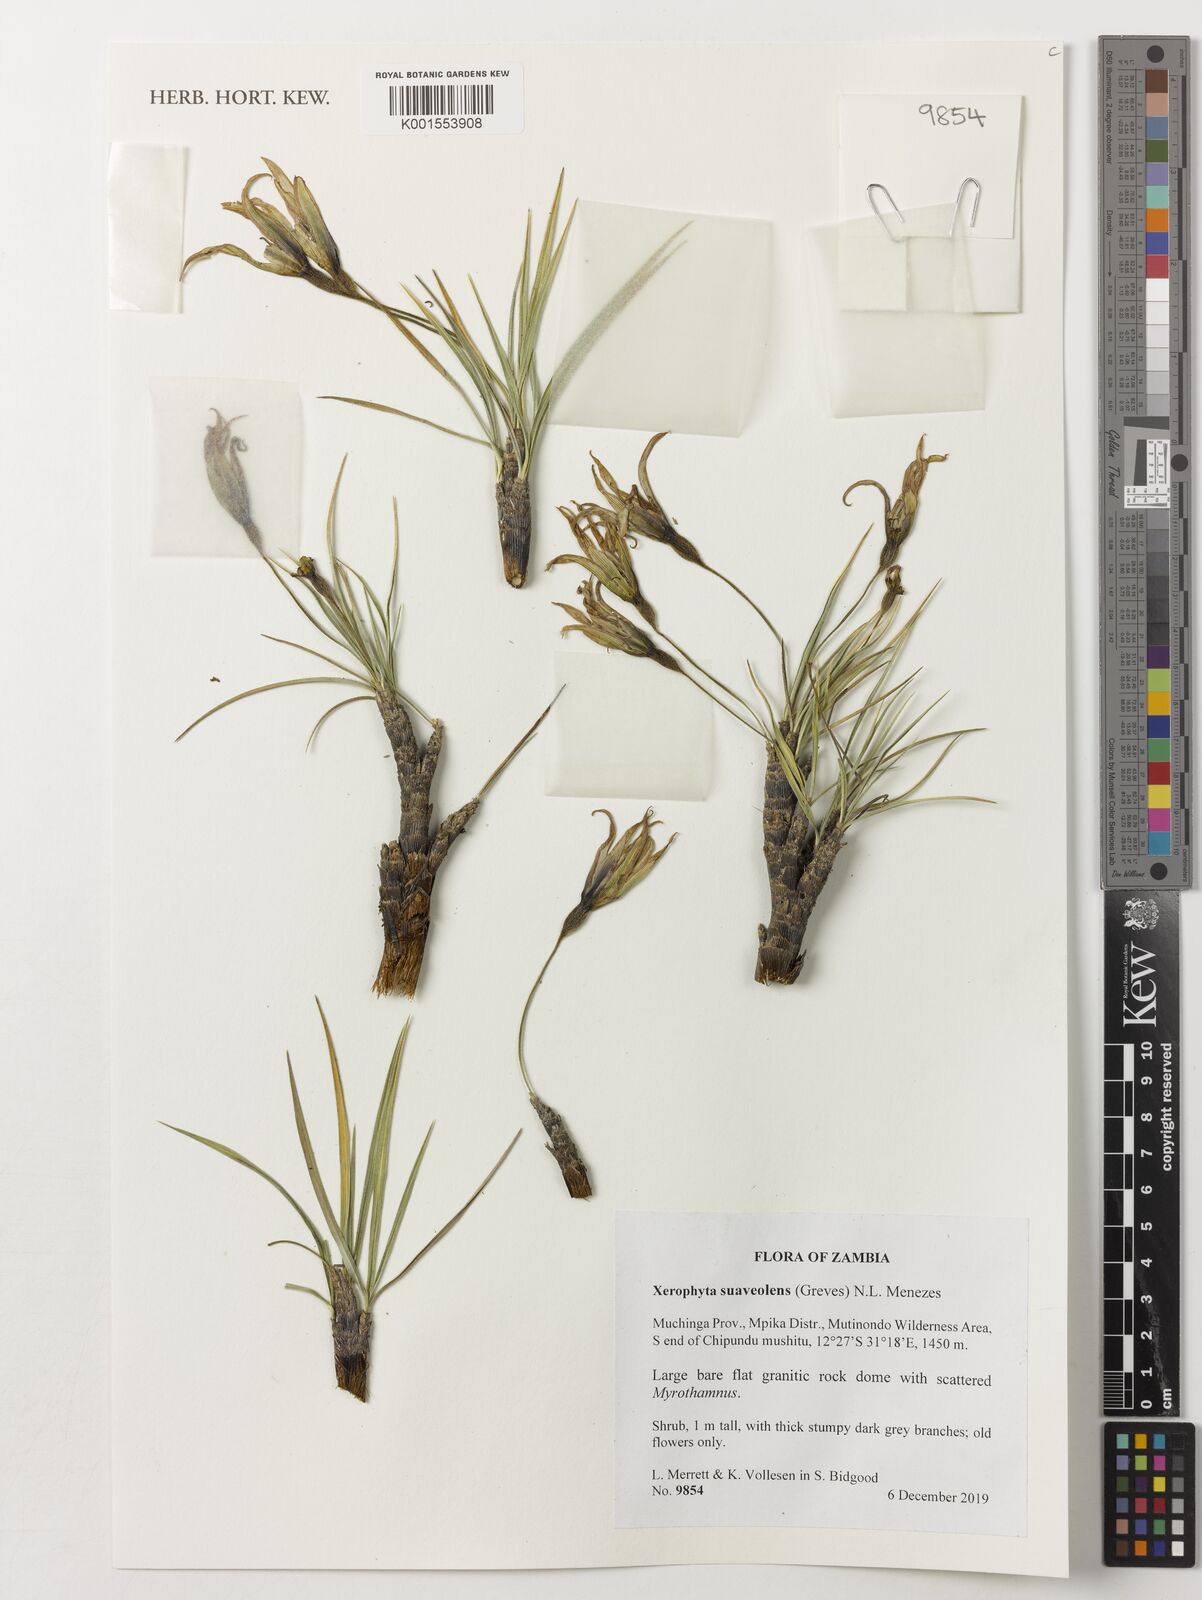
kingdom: Plantae
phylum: Tracheophyta
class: Liliopsida
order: Pandanales
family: Velloziaceae
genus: Xerophyta
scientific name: Xerophyta suaveolens
